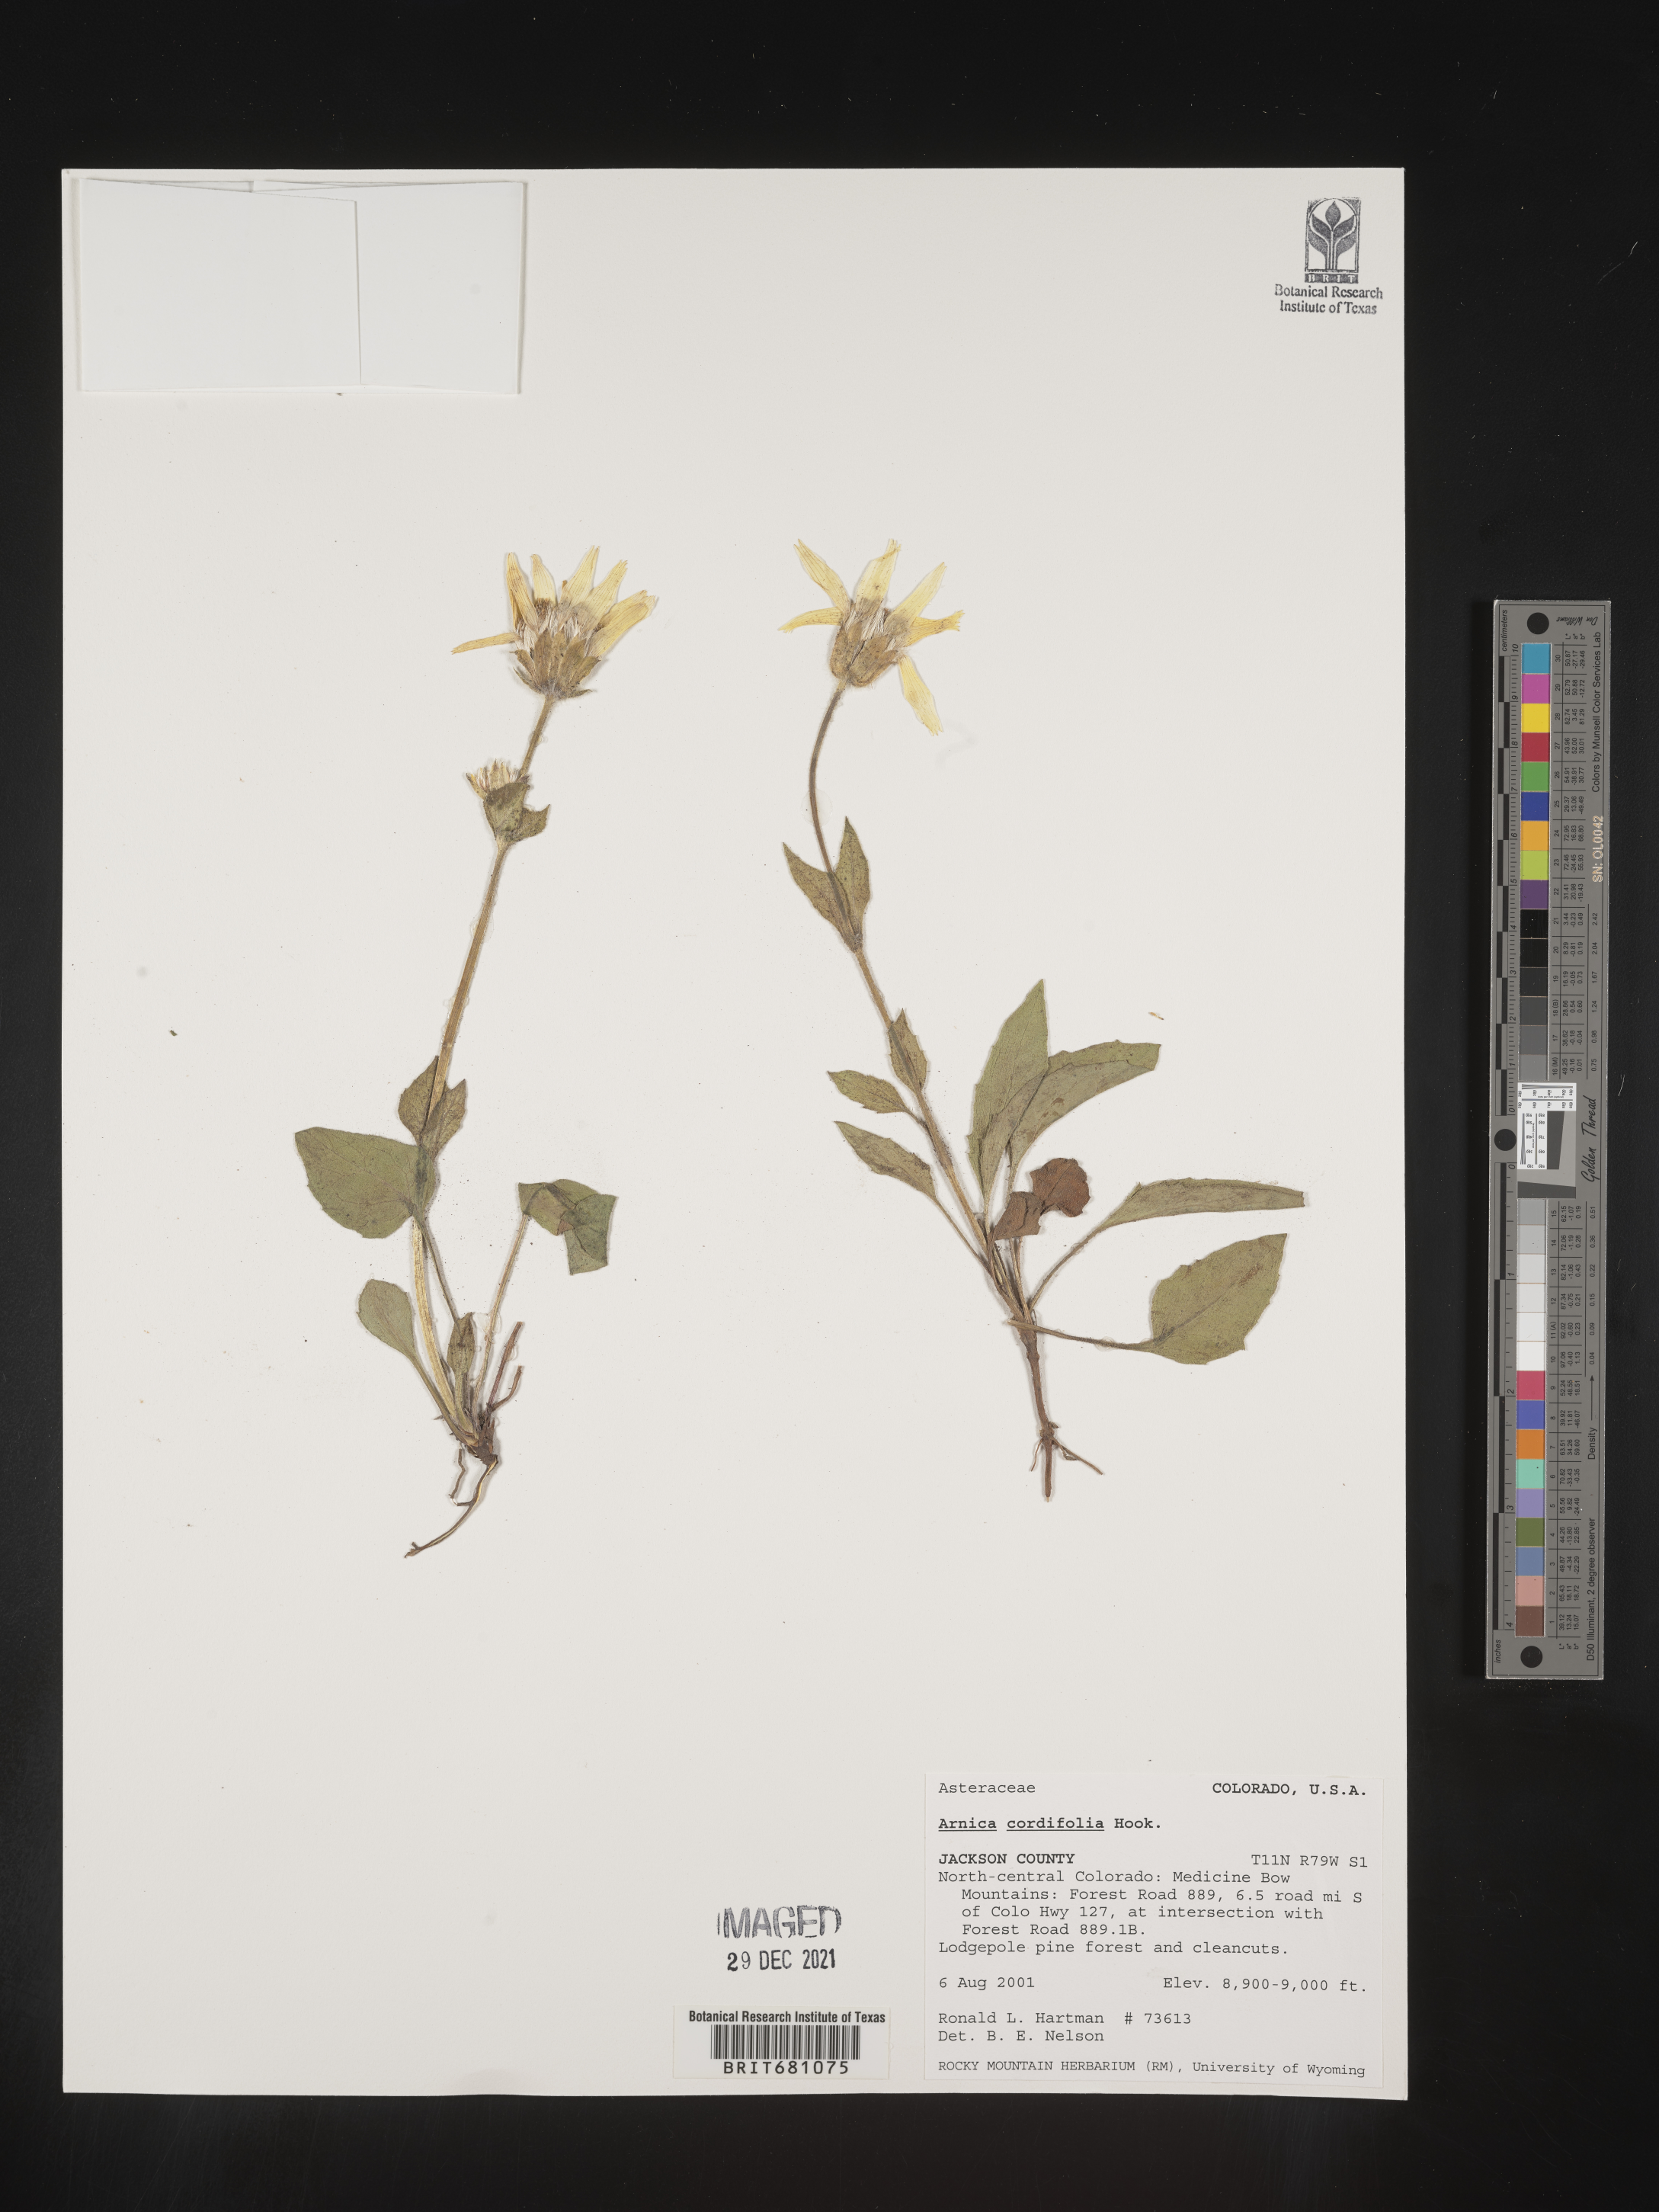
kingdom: Plantae
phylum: Tracheophyta
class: Magnoliopsida
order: Asterales
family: Asteraceae
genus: Arnica
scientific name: Arnica cordifolia
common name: Heart-leaf arnica
